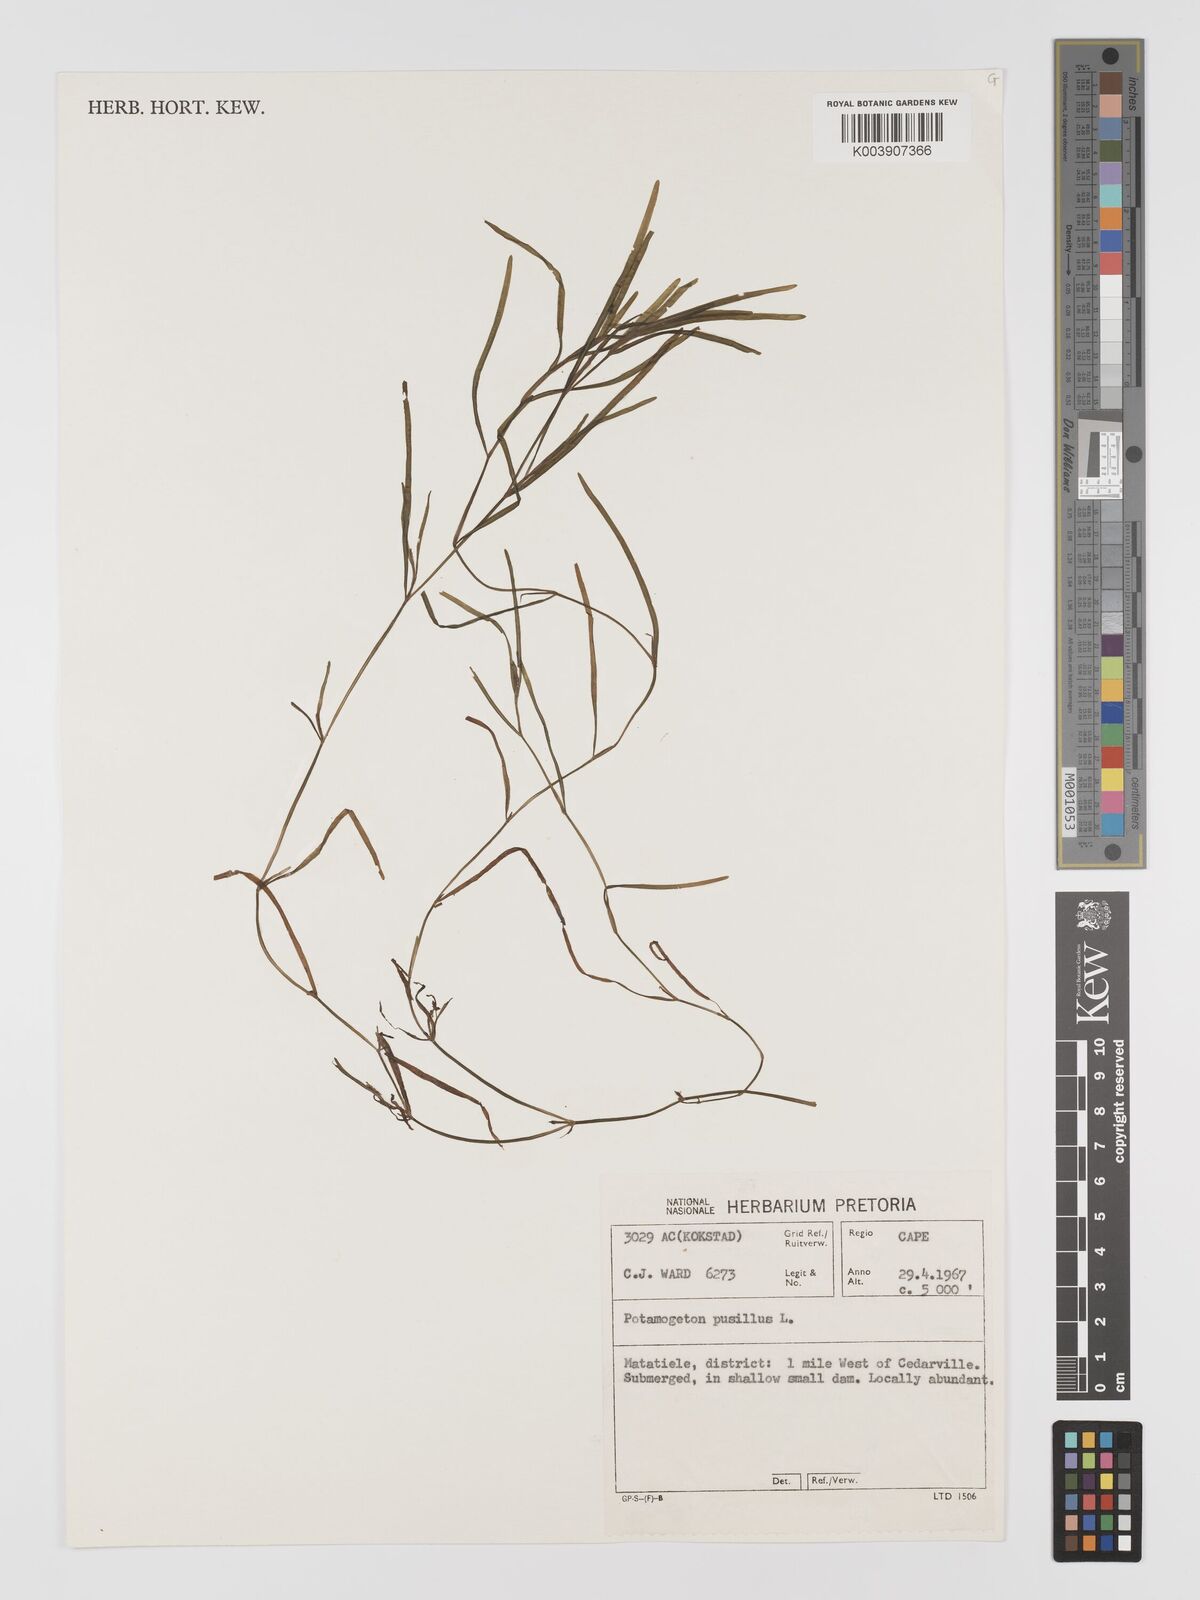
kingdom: Plantae
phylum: Tracheophyta
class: Liliopsida
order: Alismatales
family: Potamogetonaceae
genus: Potamogeton
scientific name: Potamogeton pusillus
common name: Lesser pondweed
